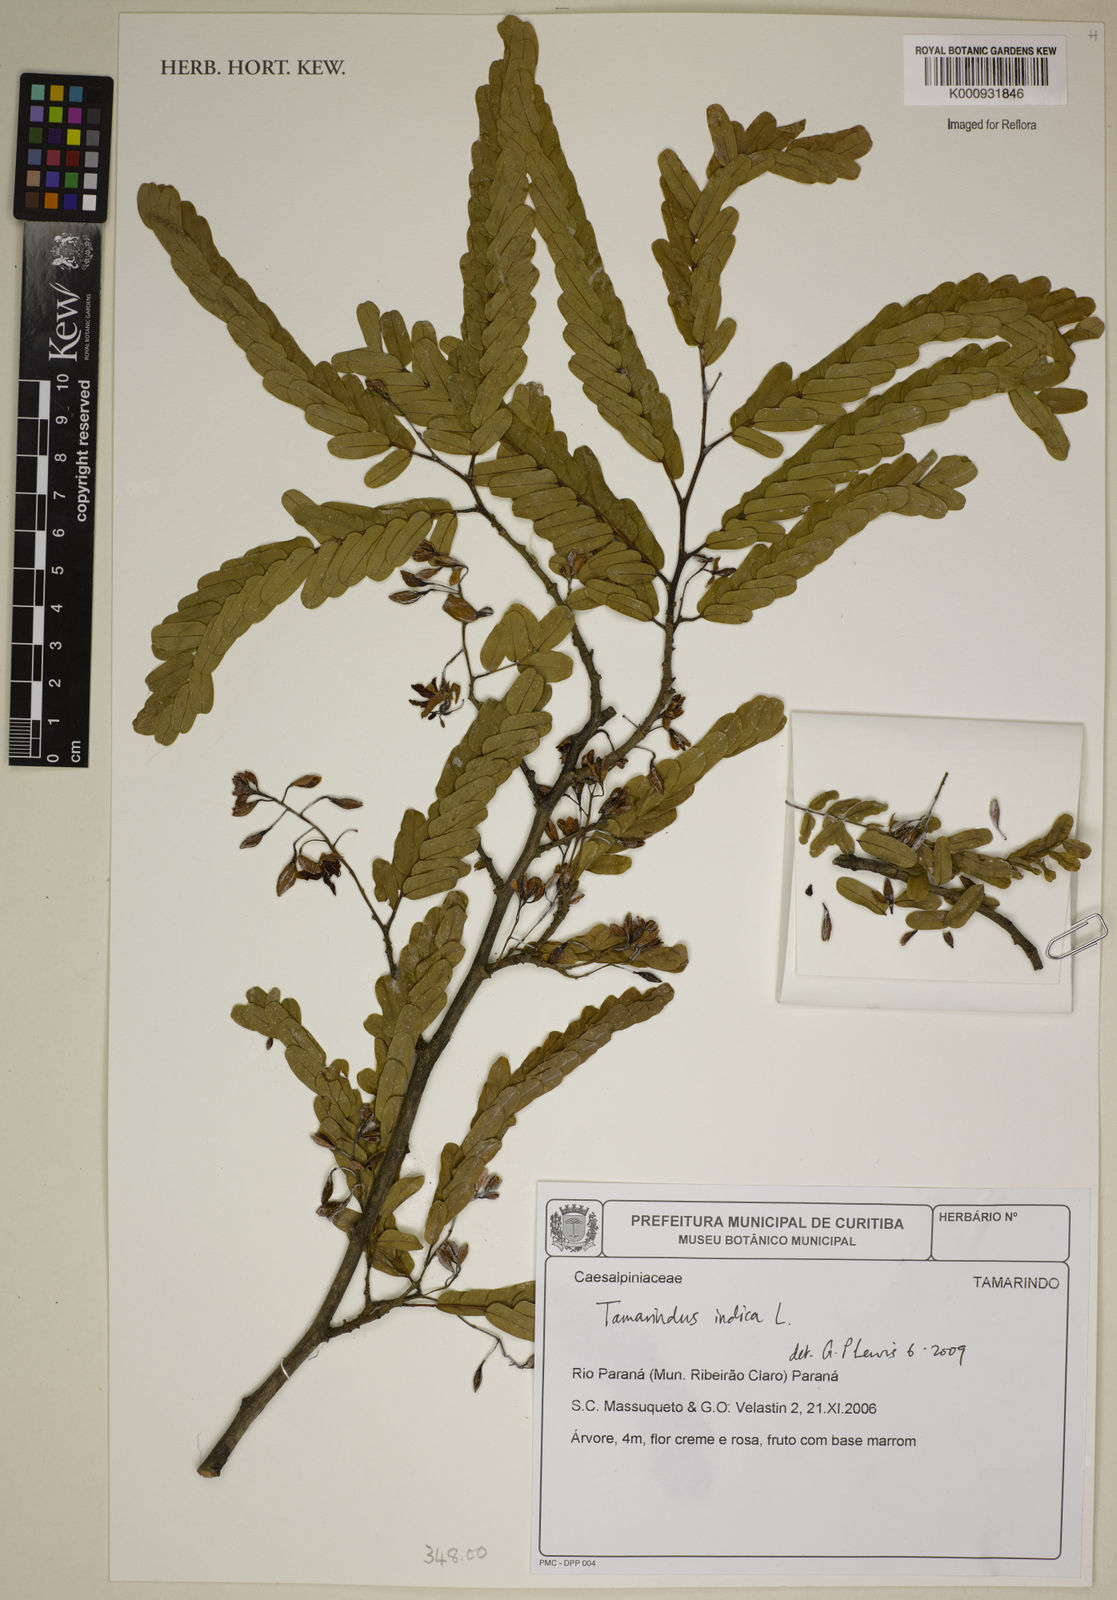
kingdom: Plantae
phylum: Tracheophyta
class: Magnoliopsida
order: Fabales
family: Fabaceae
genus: Tamarindus
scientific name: Tamarindus indica
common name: Tamarind
